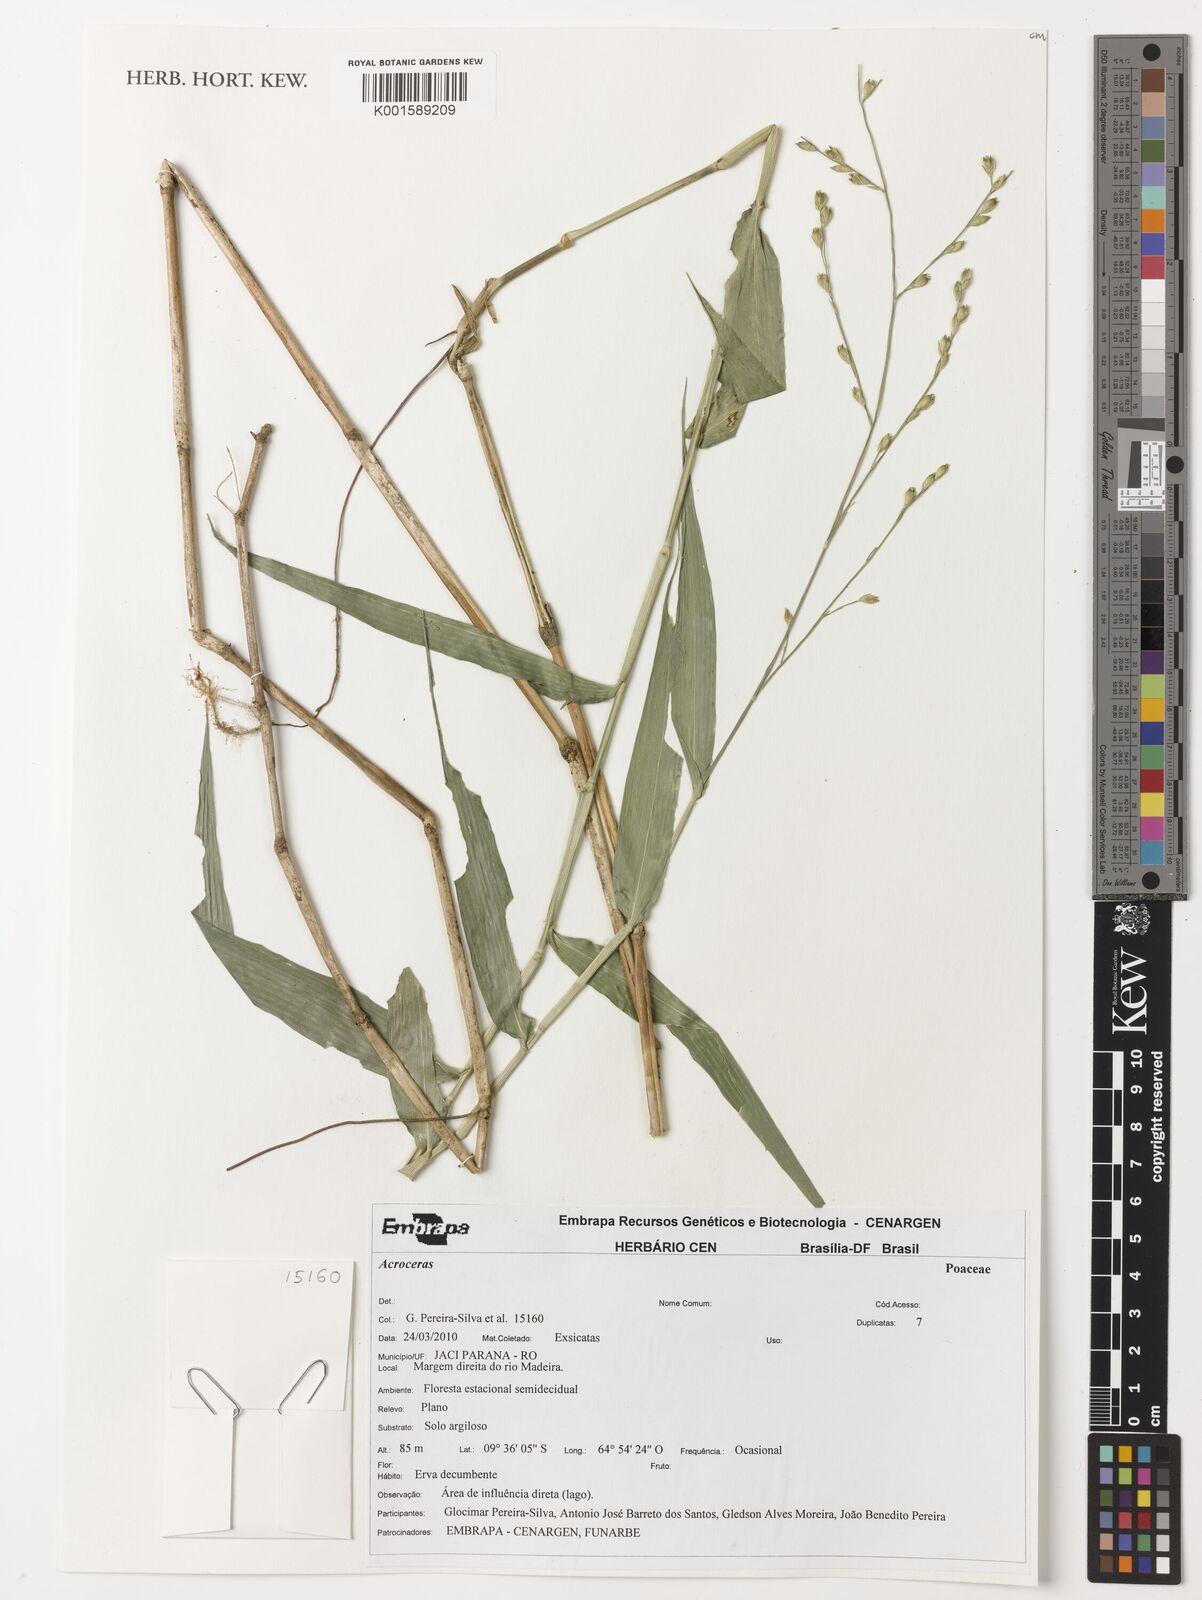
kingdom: Plantae
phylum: Tracheophyta
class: Liliopsida
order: Poales
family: Poaceae
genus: Acroceras
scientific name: Acroceras
